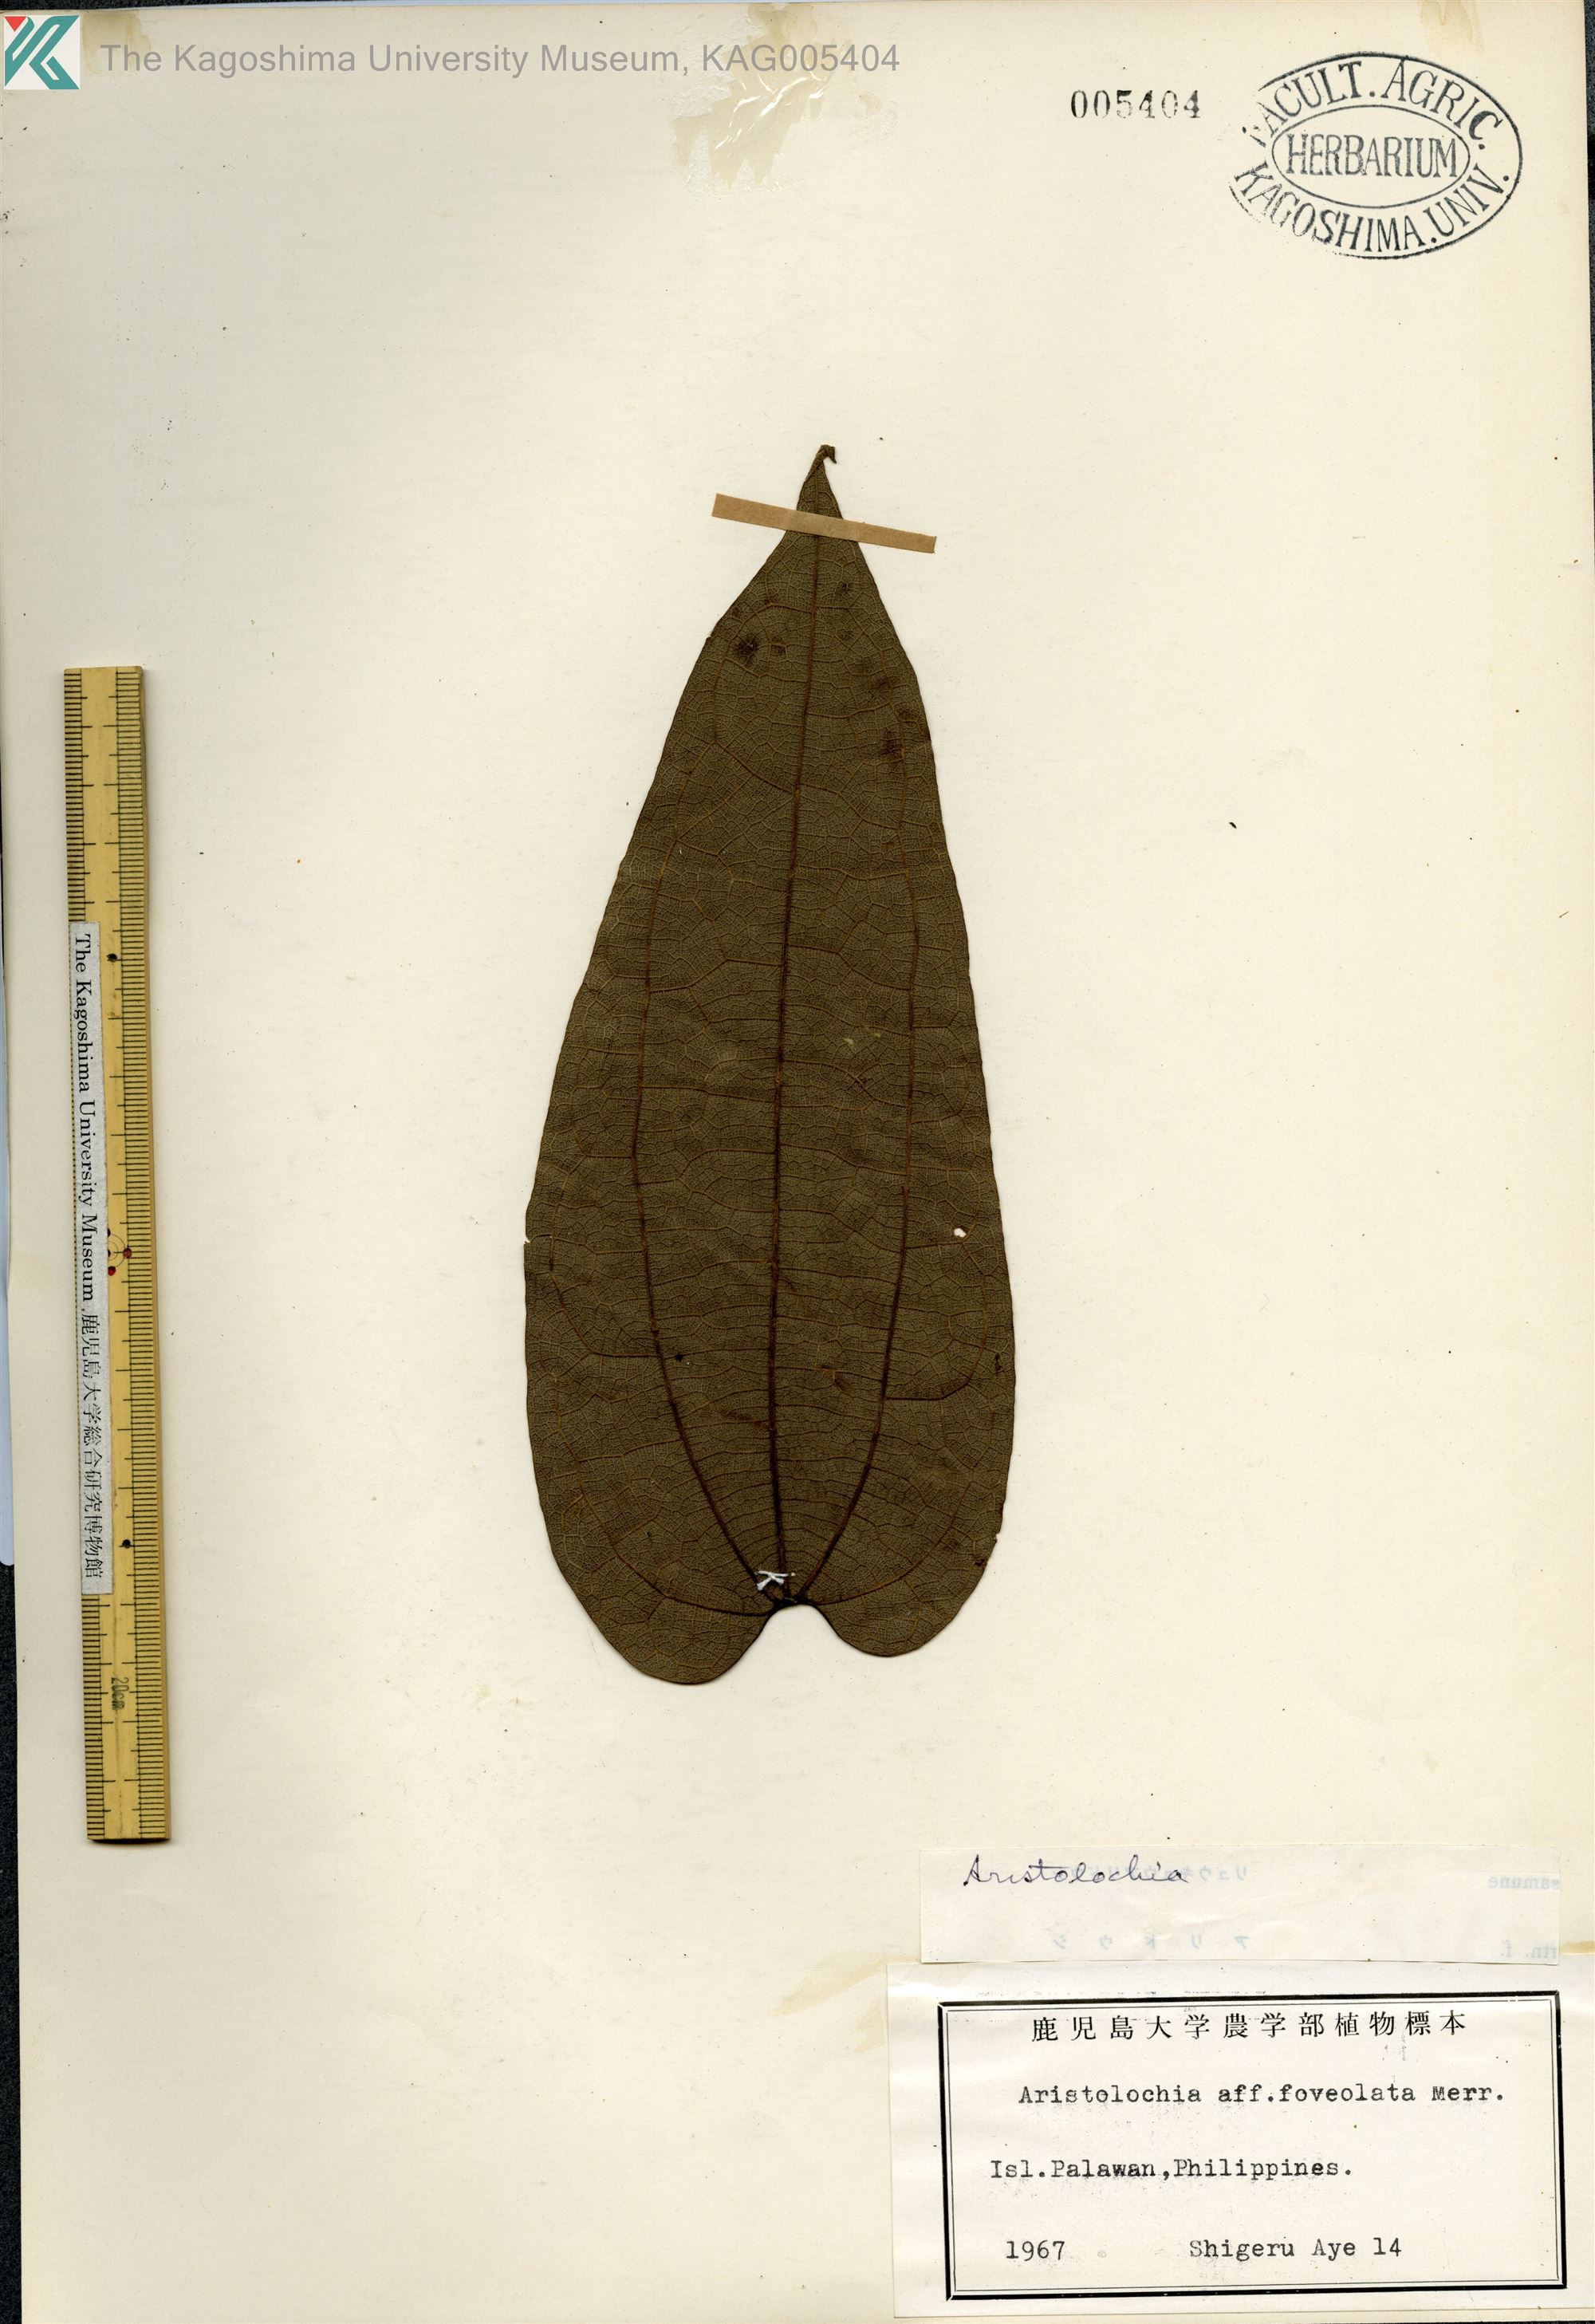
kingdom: Plantae
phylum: Tracheophyta
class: Magnoliopsida
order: Piperales
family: Aristolochiaceae
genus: Aristolochia
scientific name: Aristolochia
